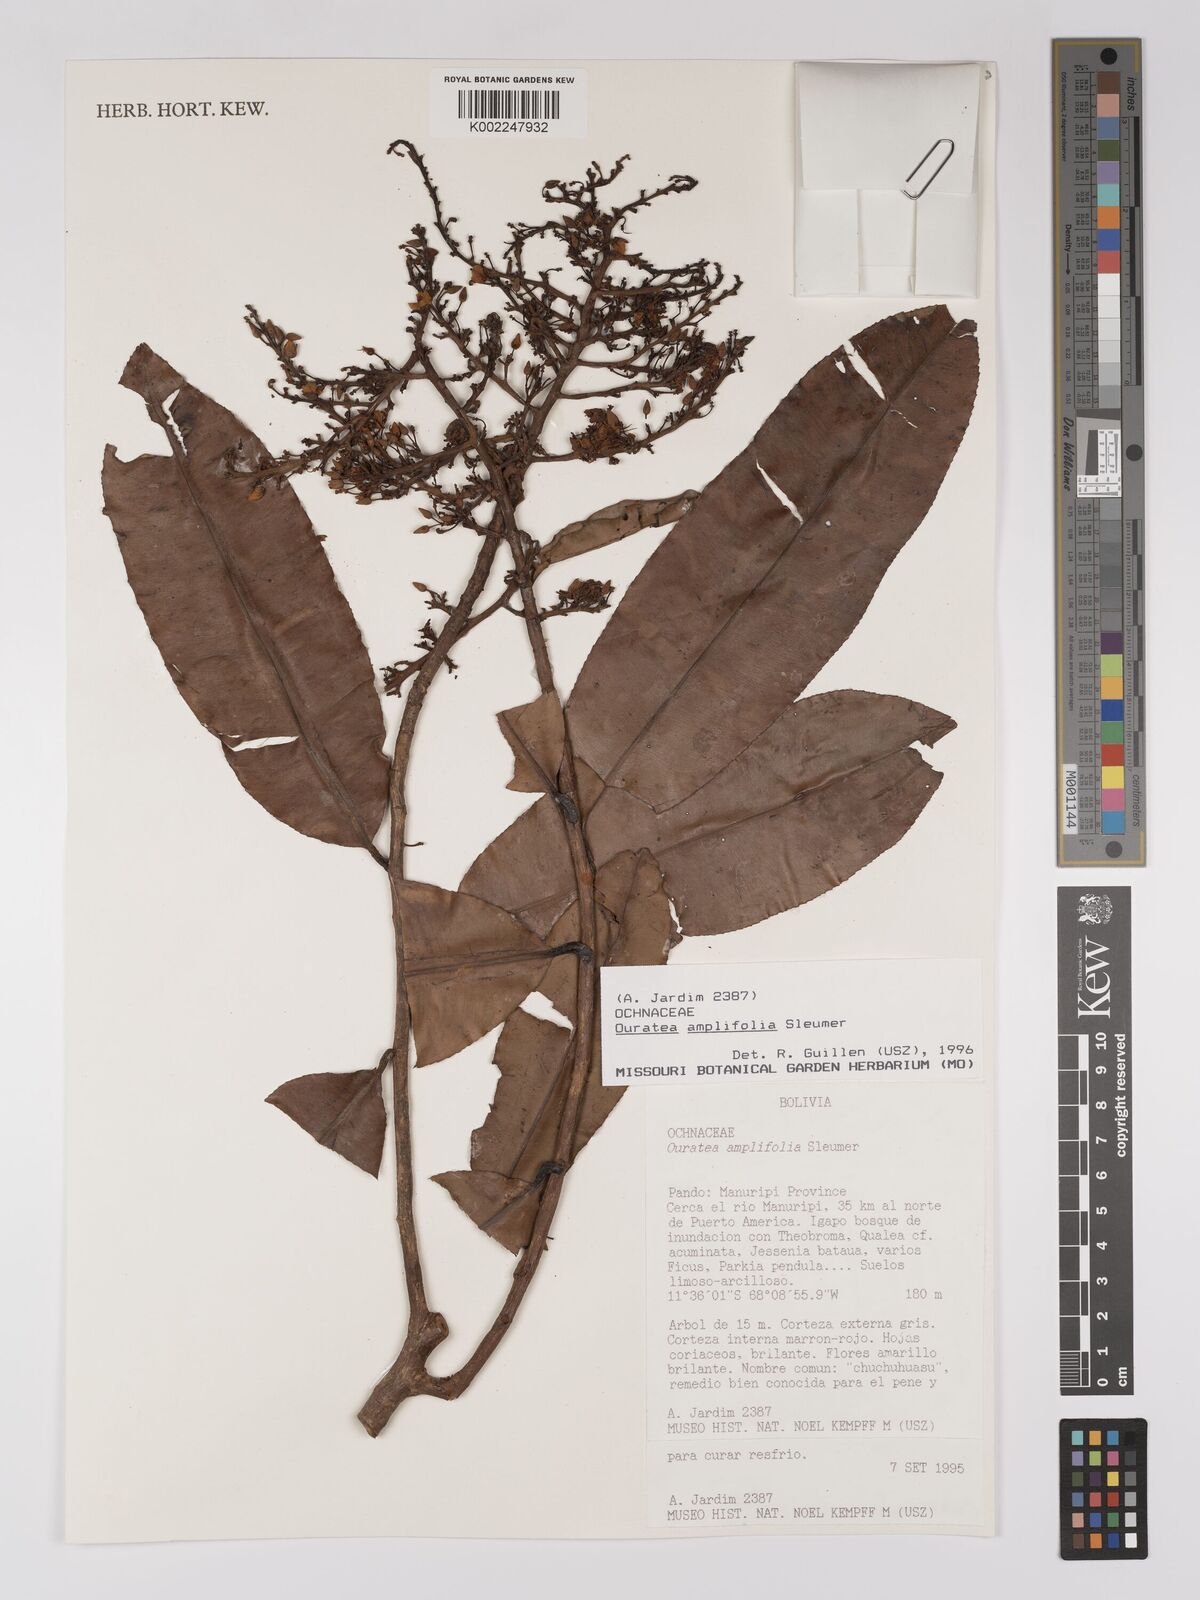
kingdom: Plantae
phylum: Tracheophyta
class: Magnoliopsida
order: Malpighiales
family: Ochnaceae
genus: Ouratea
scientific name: Ouratea amplifolia
